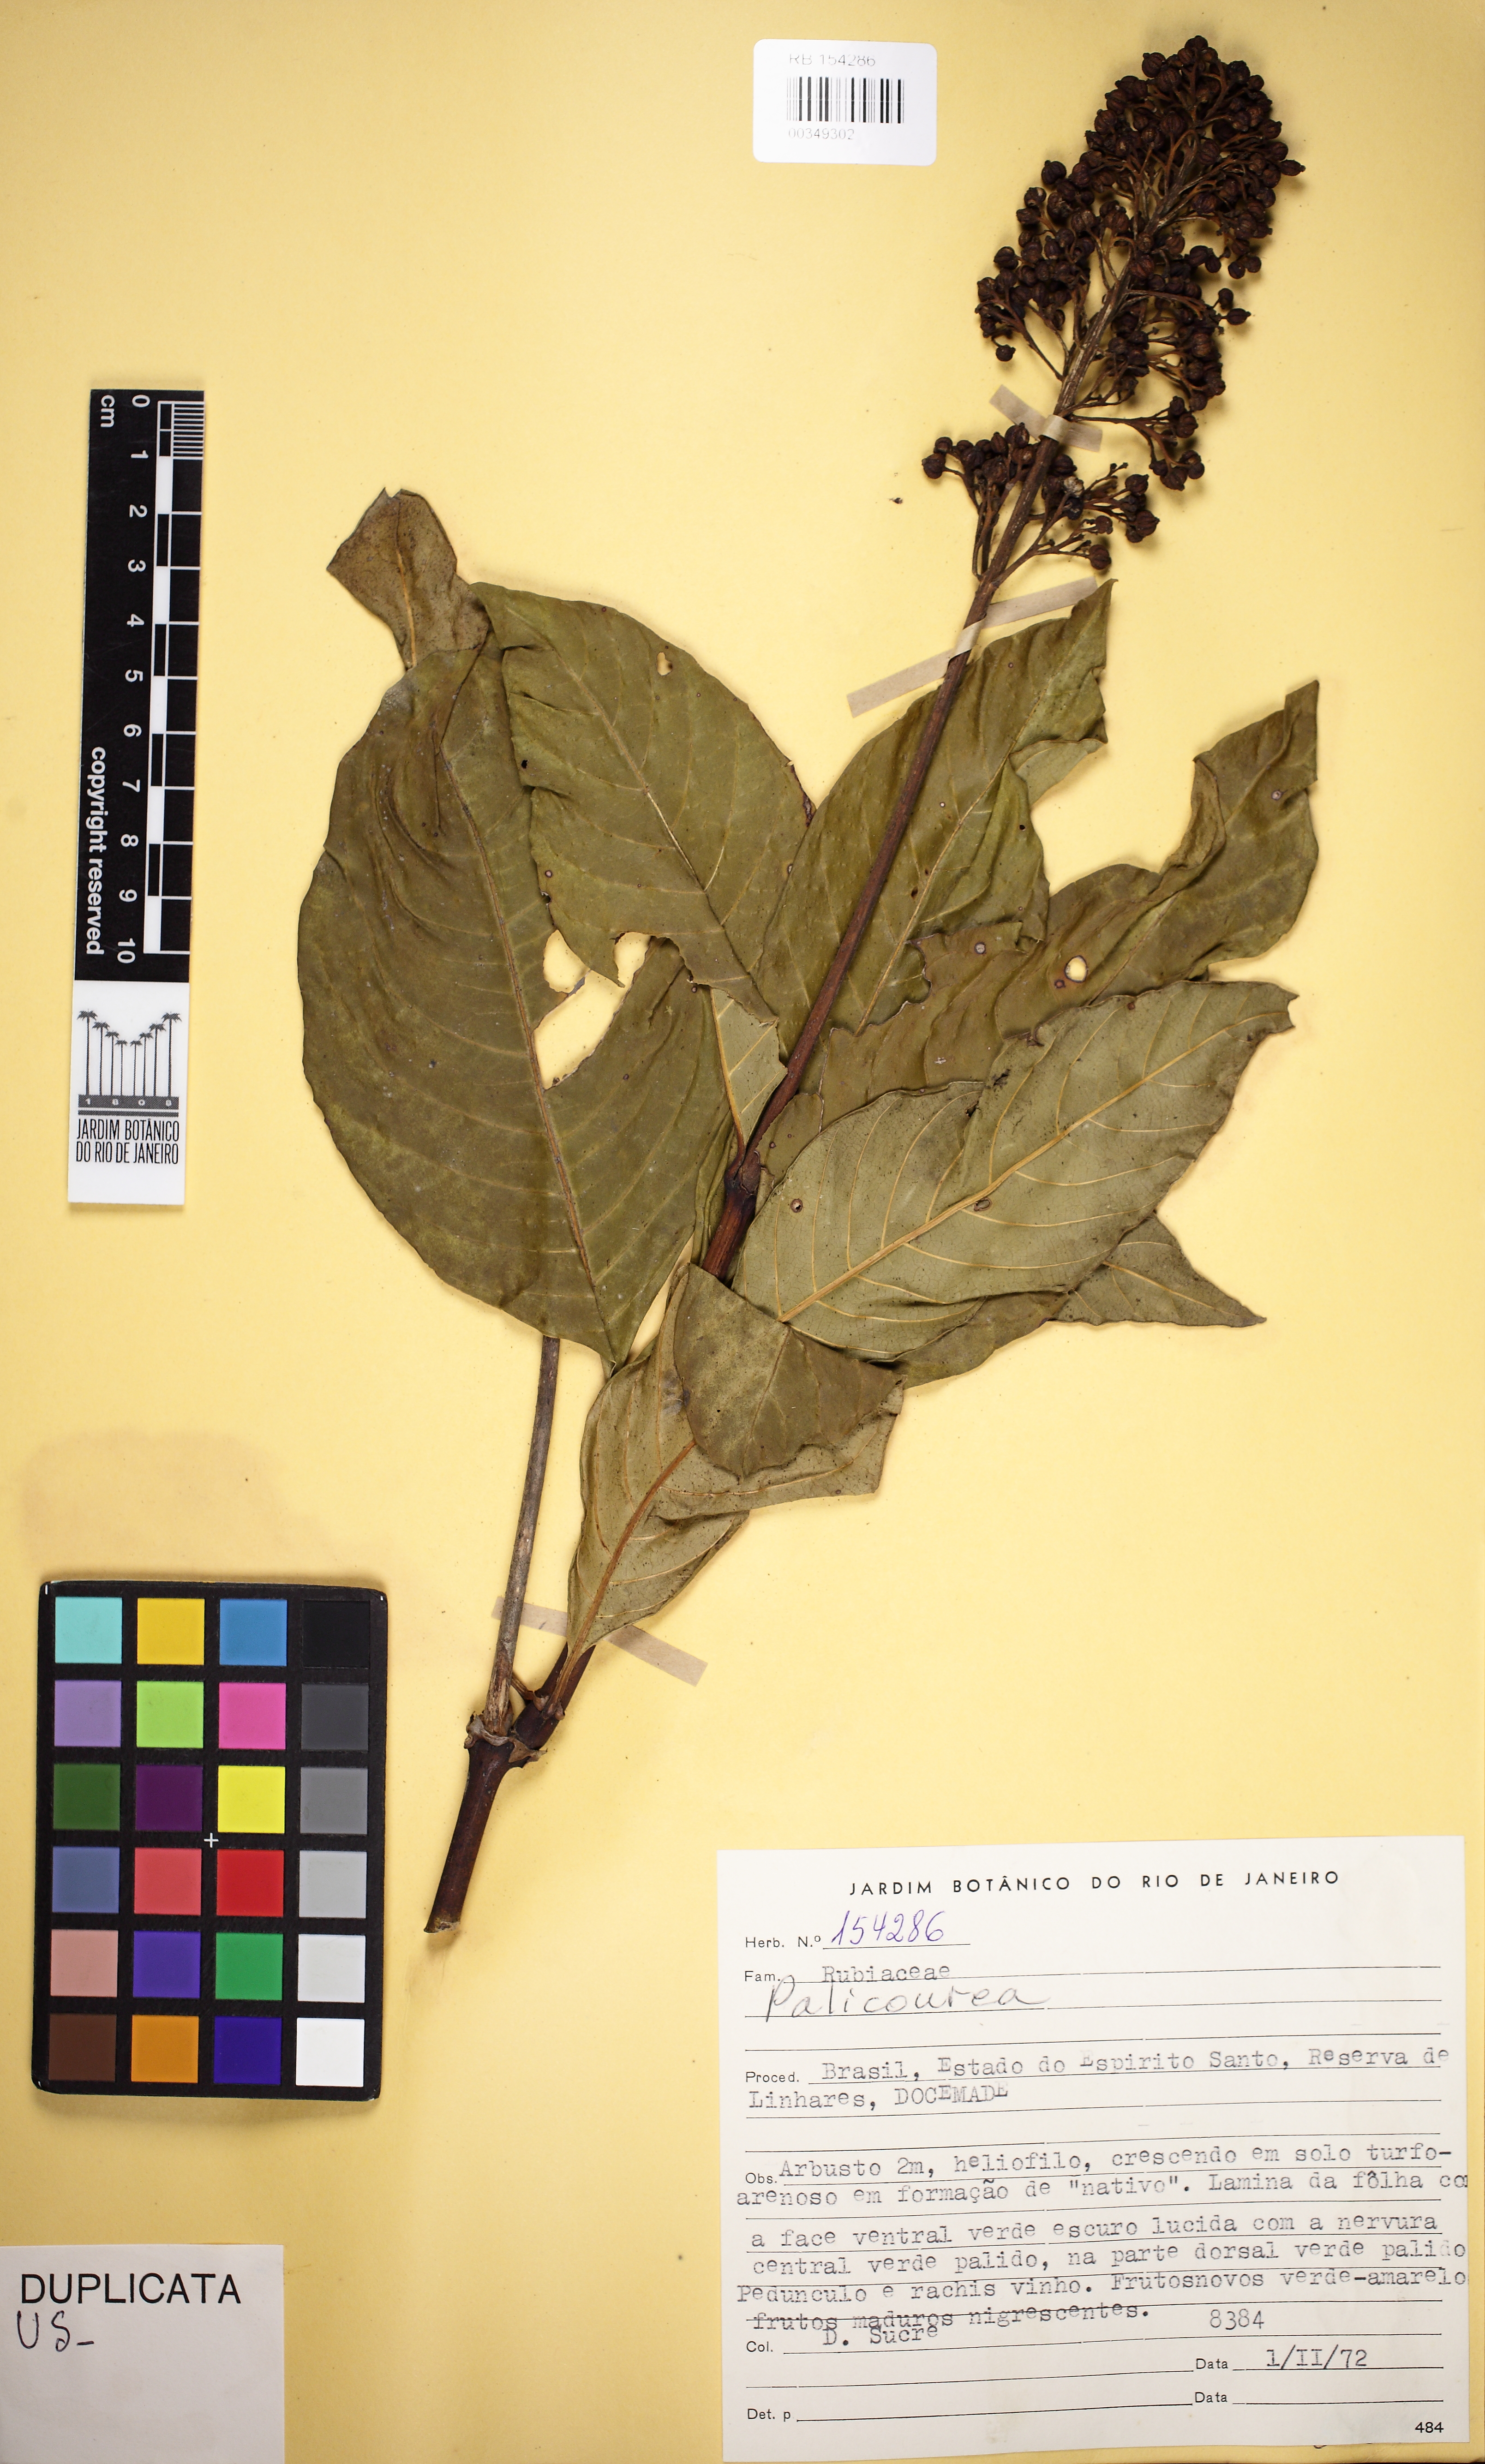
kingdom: Plantae
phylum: Tracheophyta
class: Magnoliopsida
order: Gentianales
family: Rubiaceae
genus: Palicourea
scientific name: Palicourea blanchetiana
